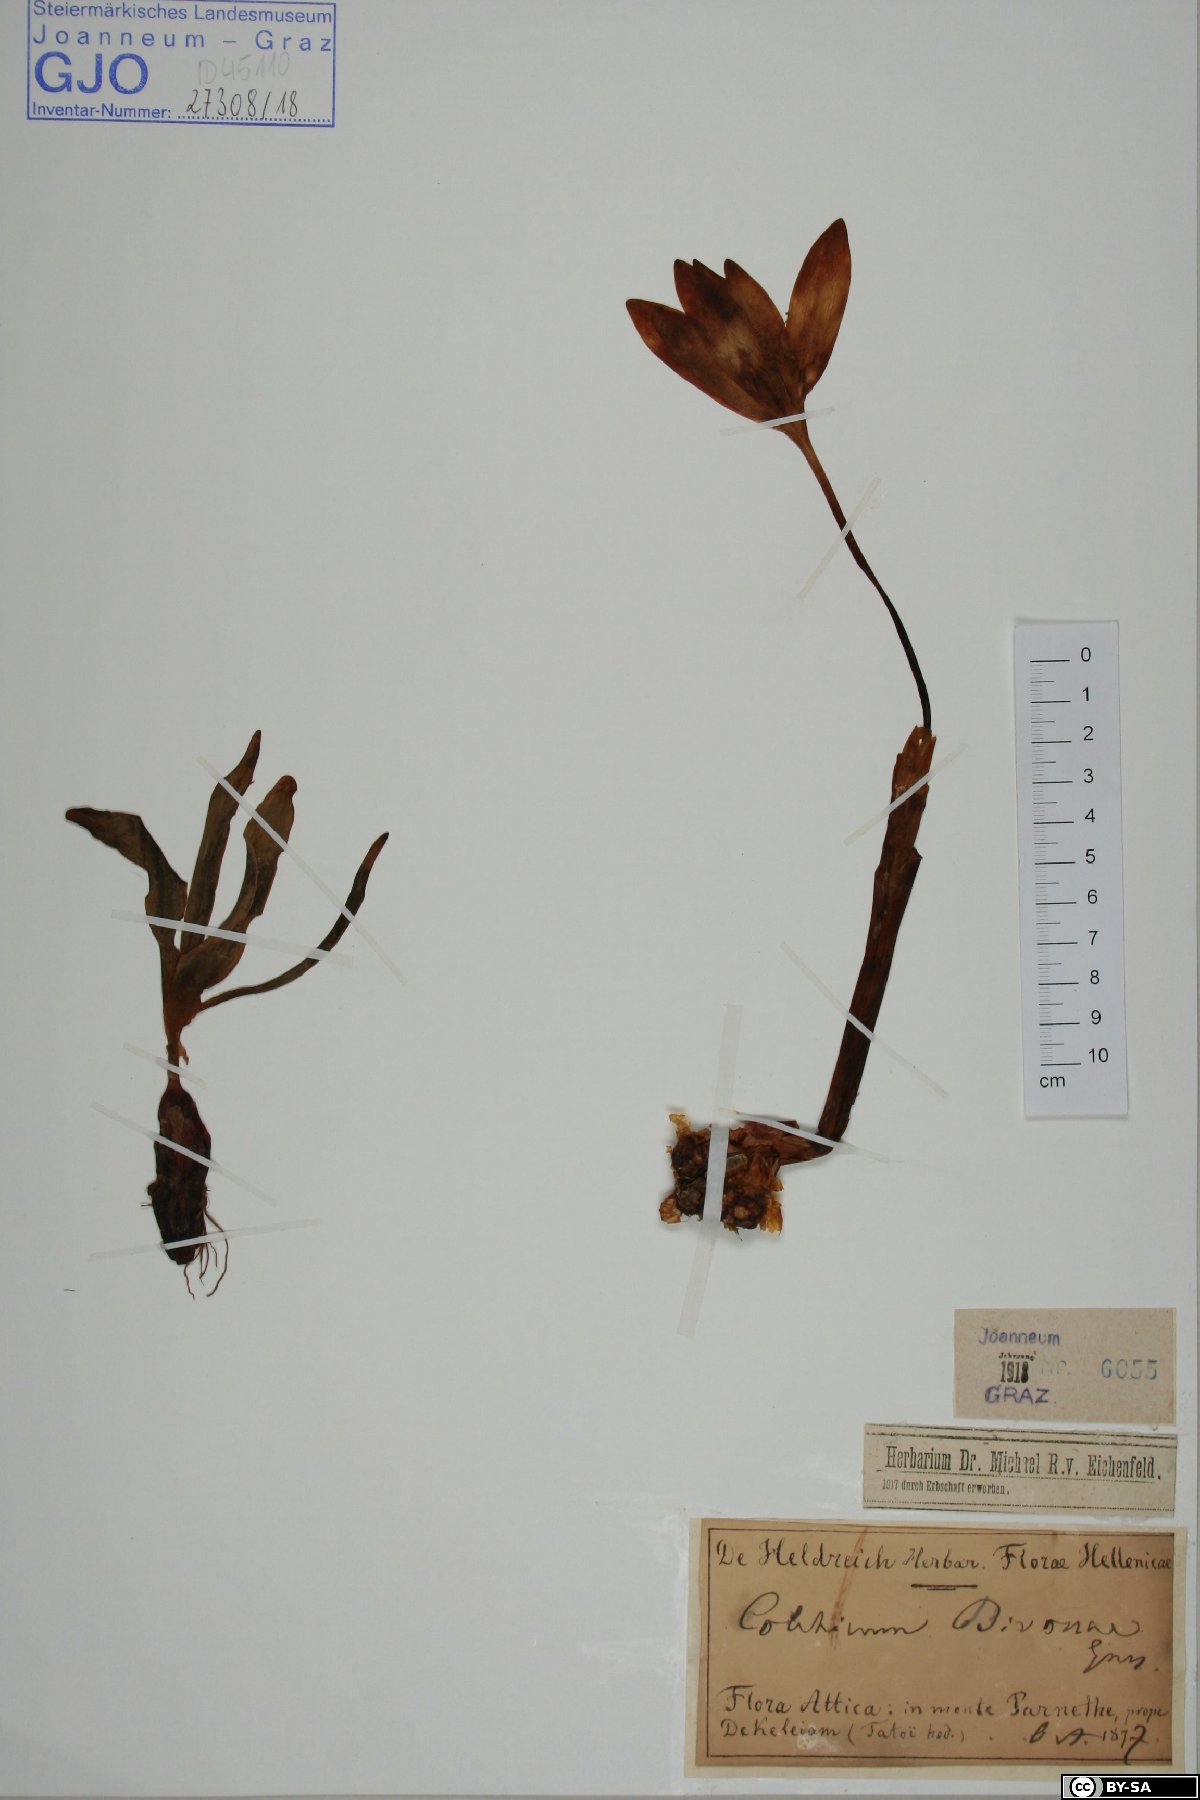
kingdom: Plantae
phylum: Tracheophyta
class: Liliopsida
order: Liliales
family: Colchicaceae
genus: Colchicum
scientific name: Colchicum bivonae
